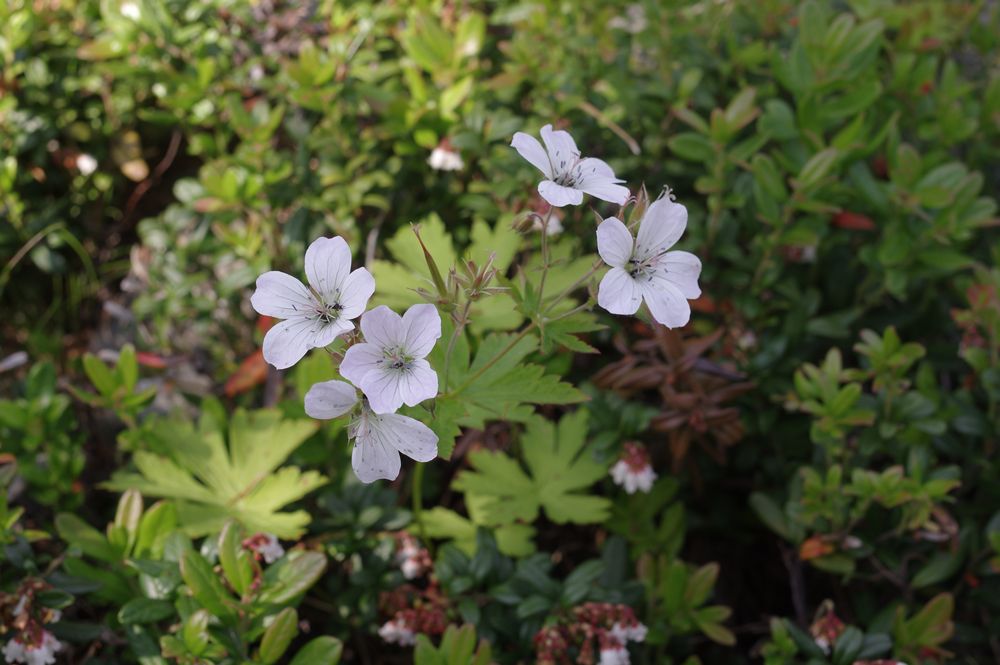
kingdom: Plantae
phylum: Tracheophyta
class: Magnoliopsida
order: Geraniales
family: Geraniaceae
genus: Geranium
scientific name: Geranium sylvaticum
